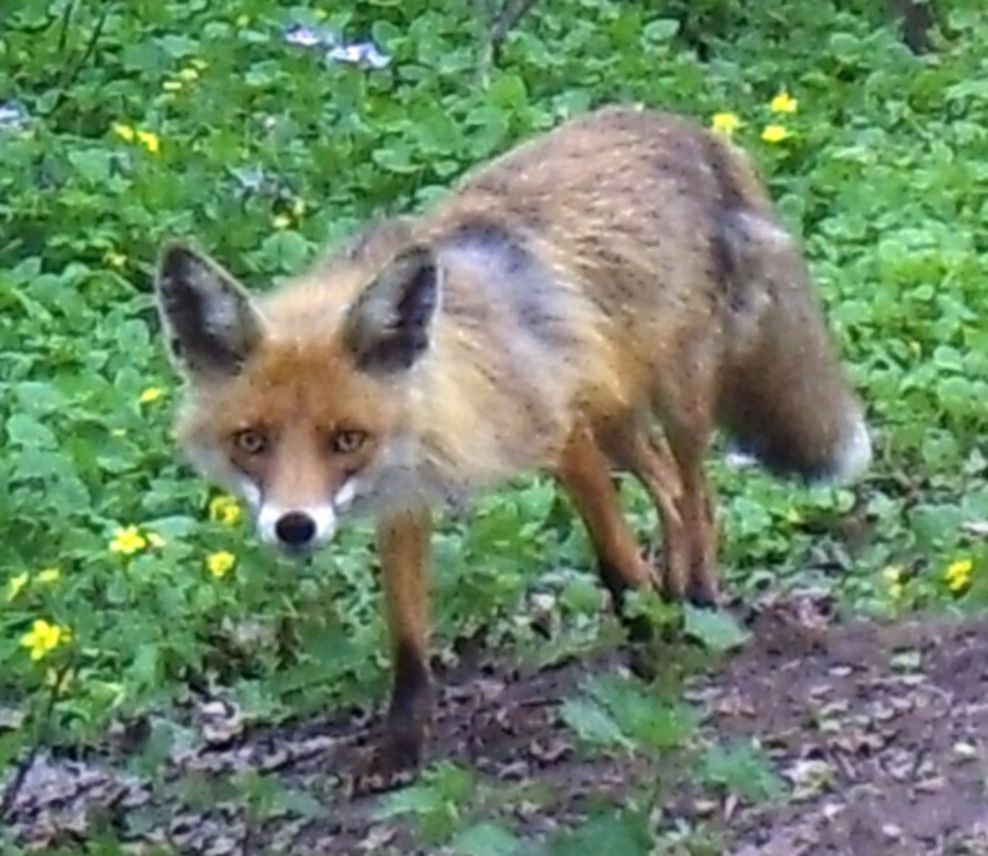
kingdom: Animalia
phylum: Chordata
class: Mammalia
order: Carnivora
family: Canidae
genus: Vulpes
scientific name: Vulpes vulpes
